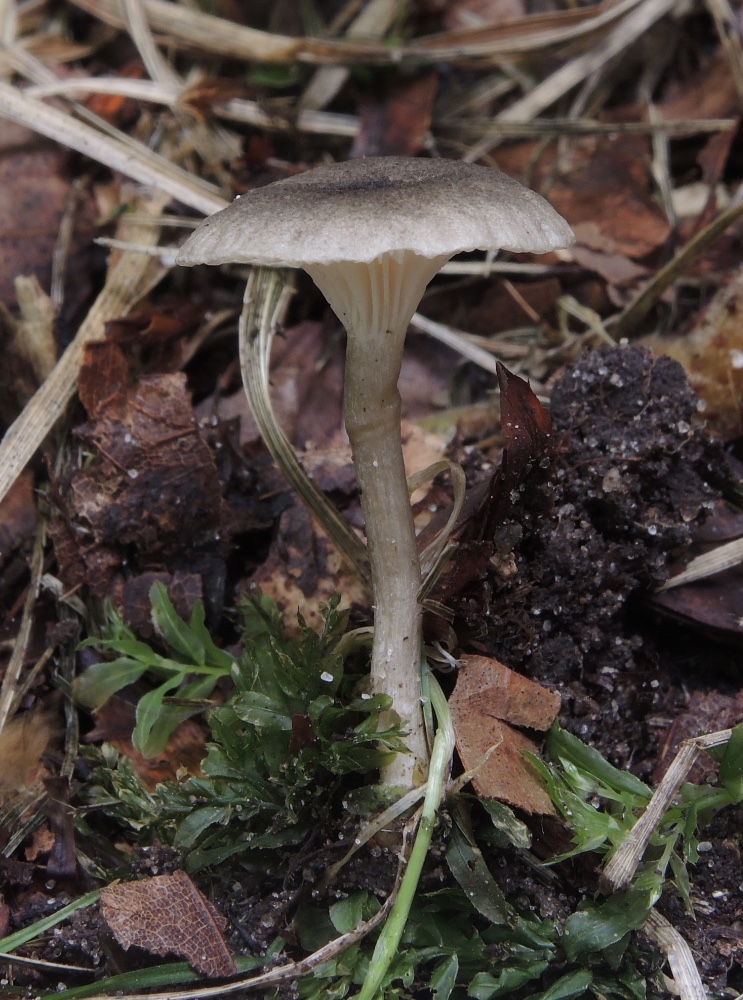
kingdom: Fungi
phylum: Basidiomycota
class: Agaricomycetes
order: Agaricales
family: Hygrophoraceae
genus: Spodocybe
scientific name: Spodocybe trulliformis
